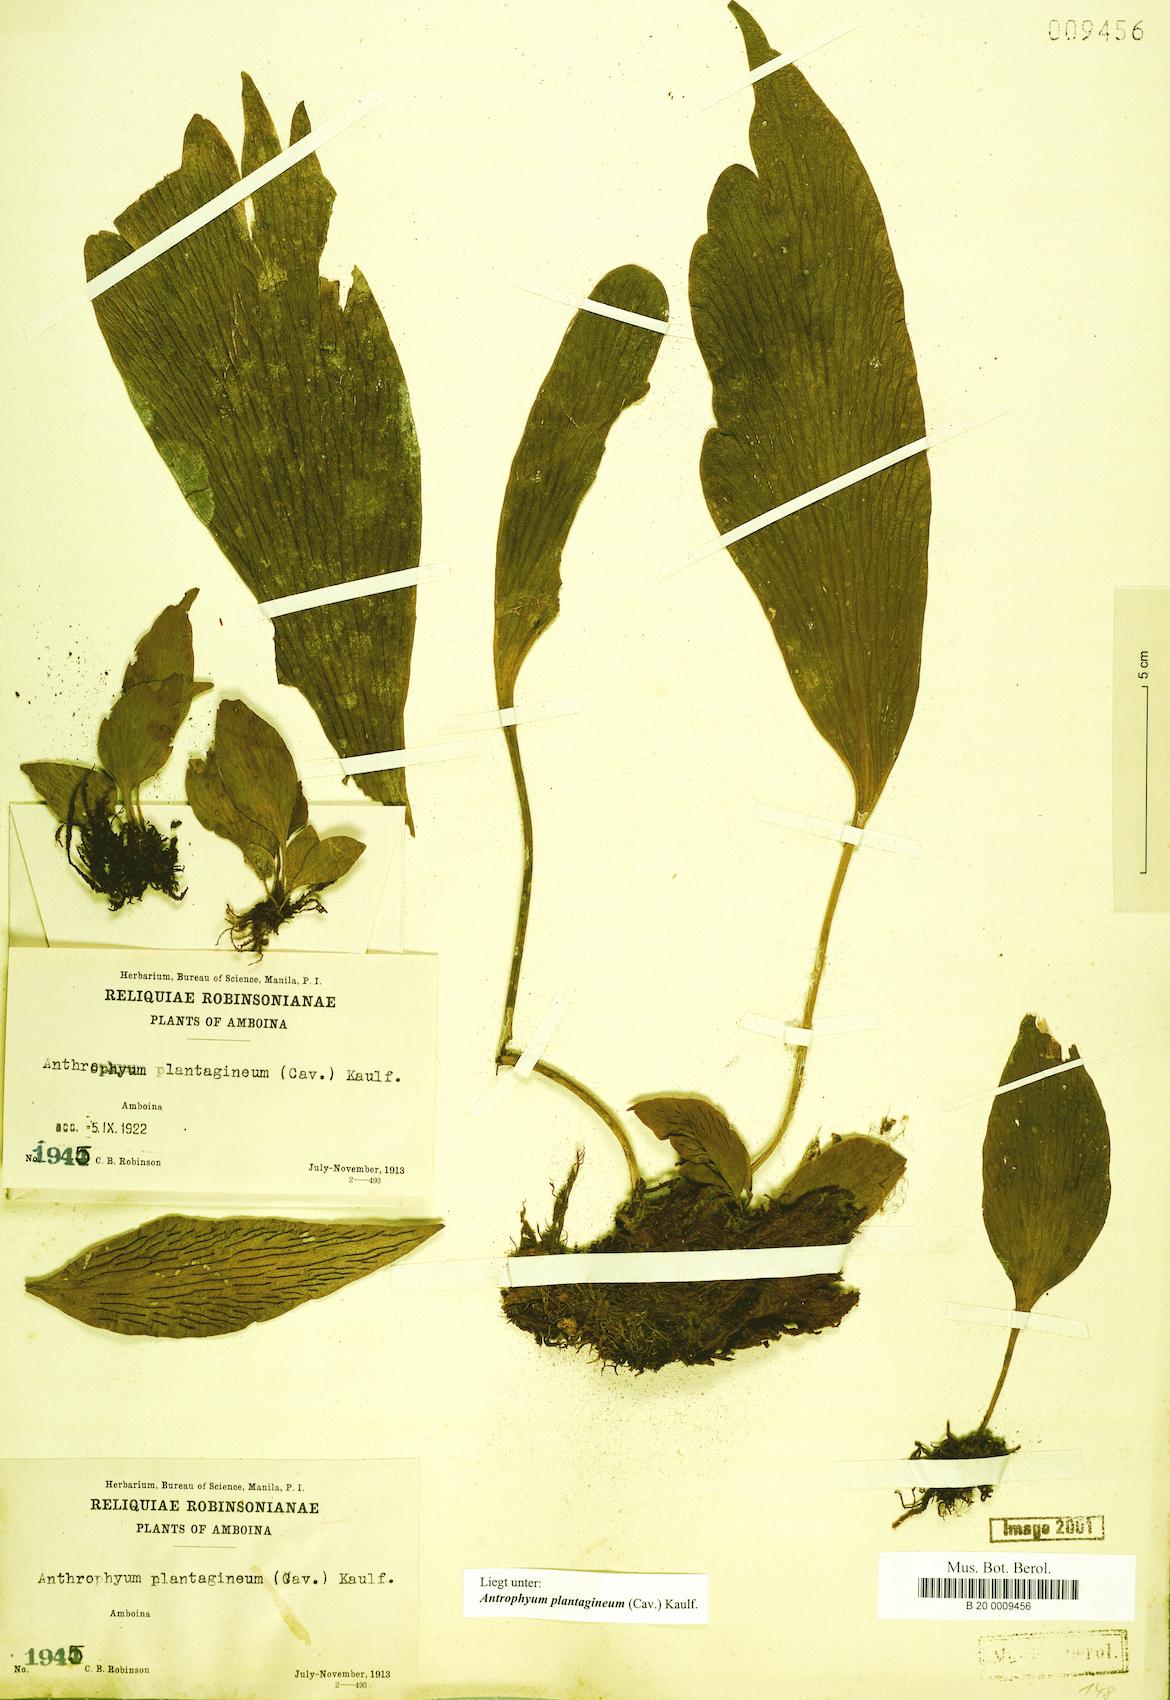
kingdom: Plantae
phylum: Tracheophyta
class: Polypodiopsida
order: Polypodiales
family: Pteridaceae
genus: Antrophyum
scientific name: Antrophyum plantagineum
